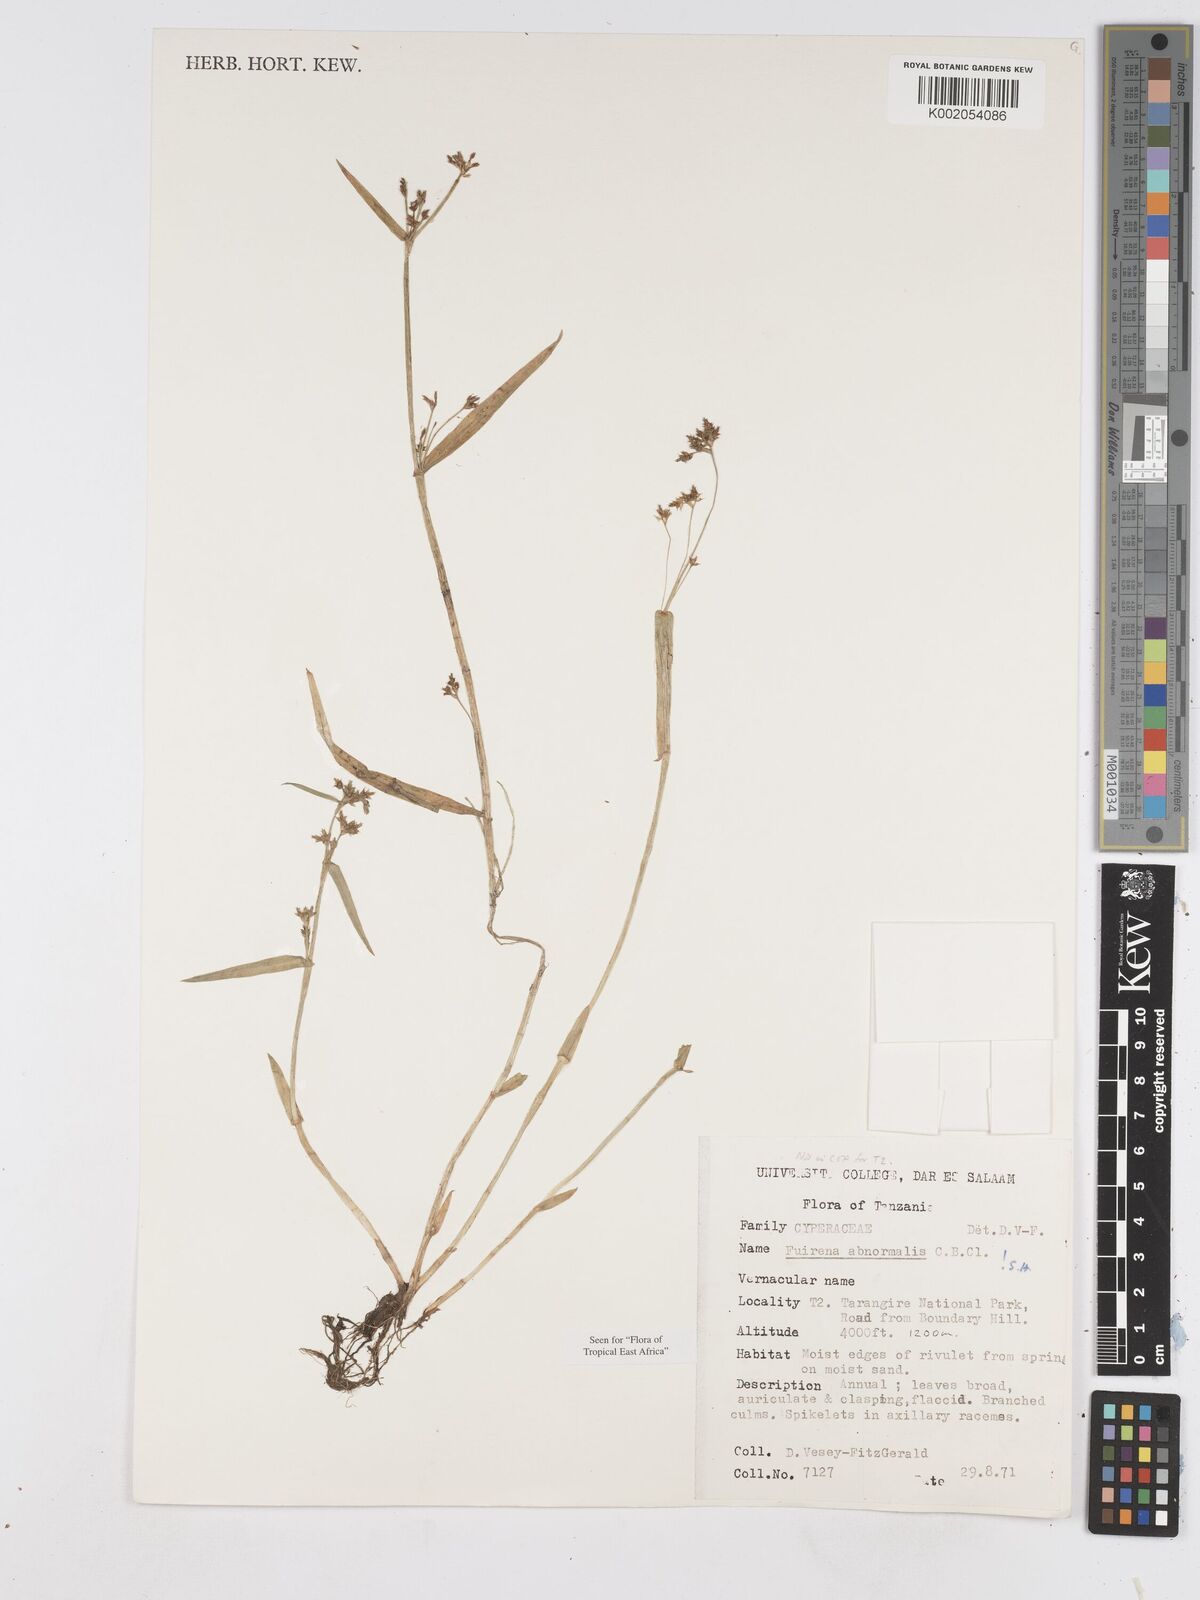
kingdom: Plantae
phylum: Tracheophyta
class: Liliopsida
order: Poales
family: Cyperaceae
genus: Fuirena
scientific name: Fuirena abnormalis
